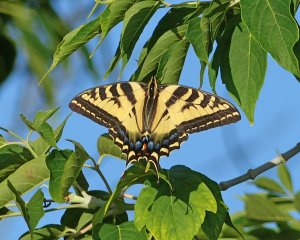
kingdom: Animalia
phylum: Arthropoda
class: Insecta
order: Lepidoptera
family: Papilionidae
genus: Pterourus
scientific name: Pterourus rutulus
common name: Western Tiger Swallowtail
